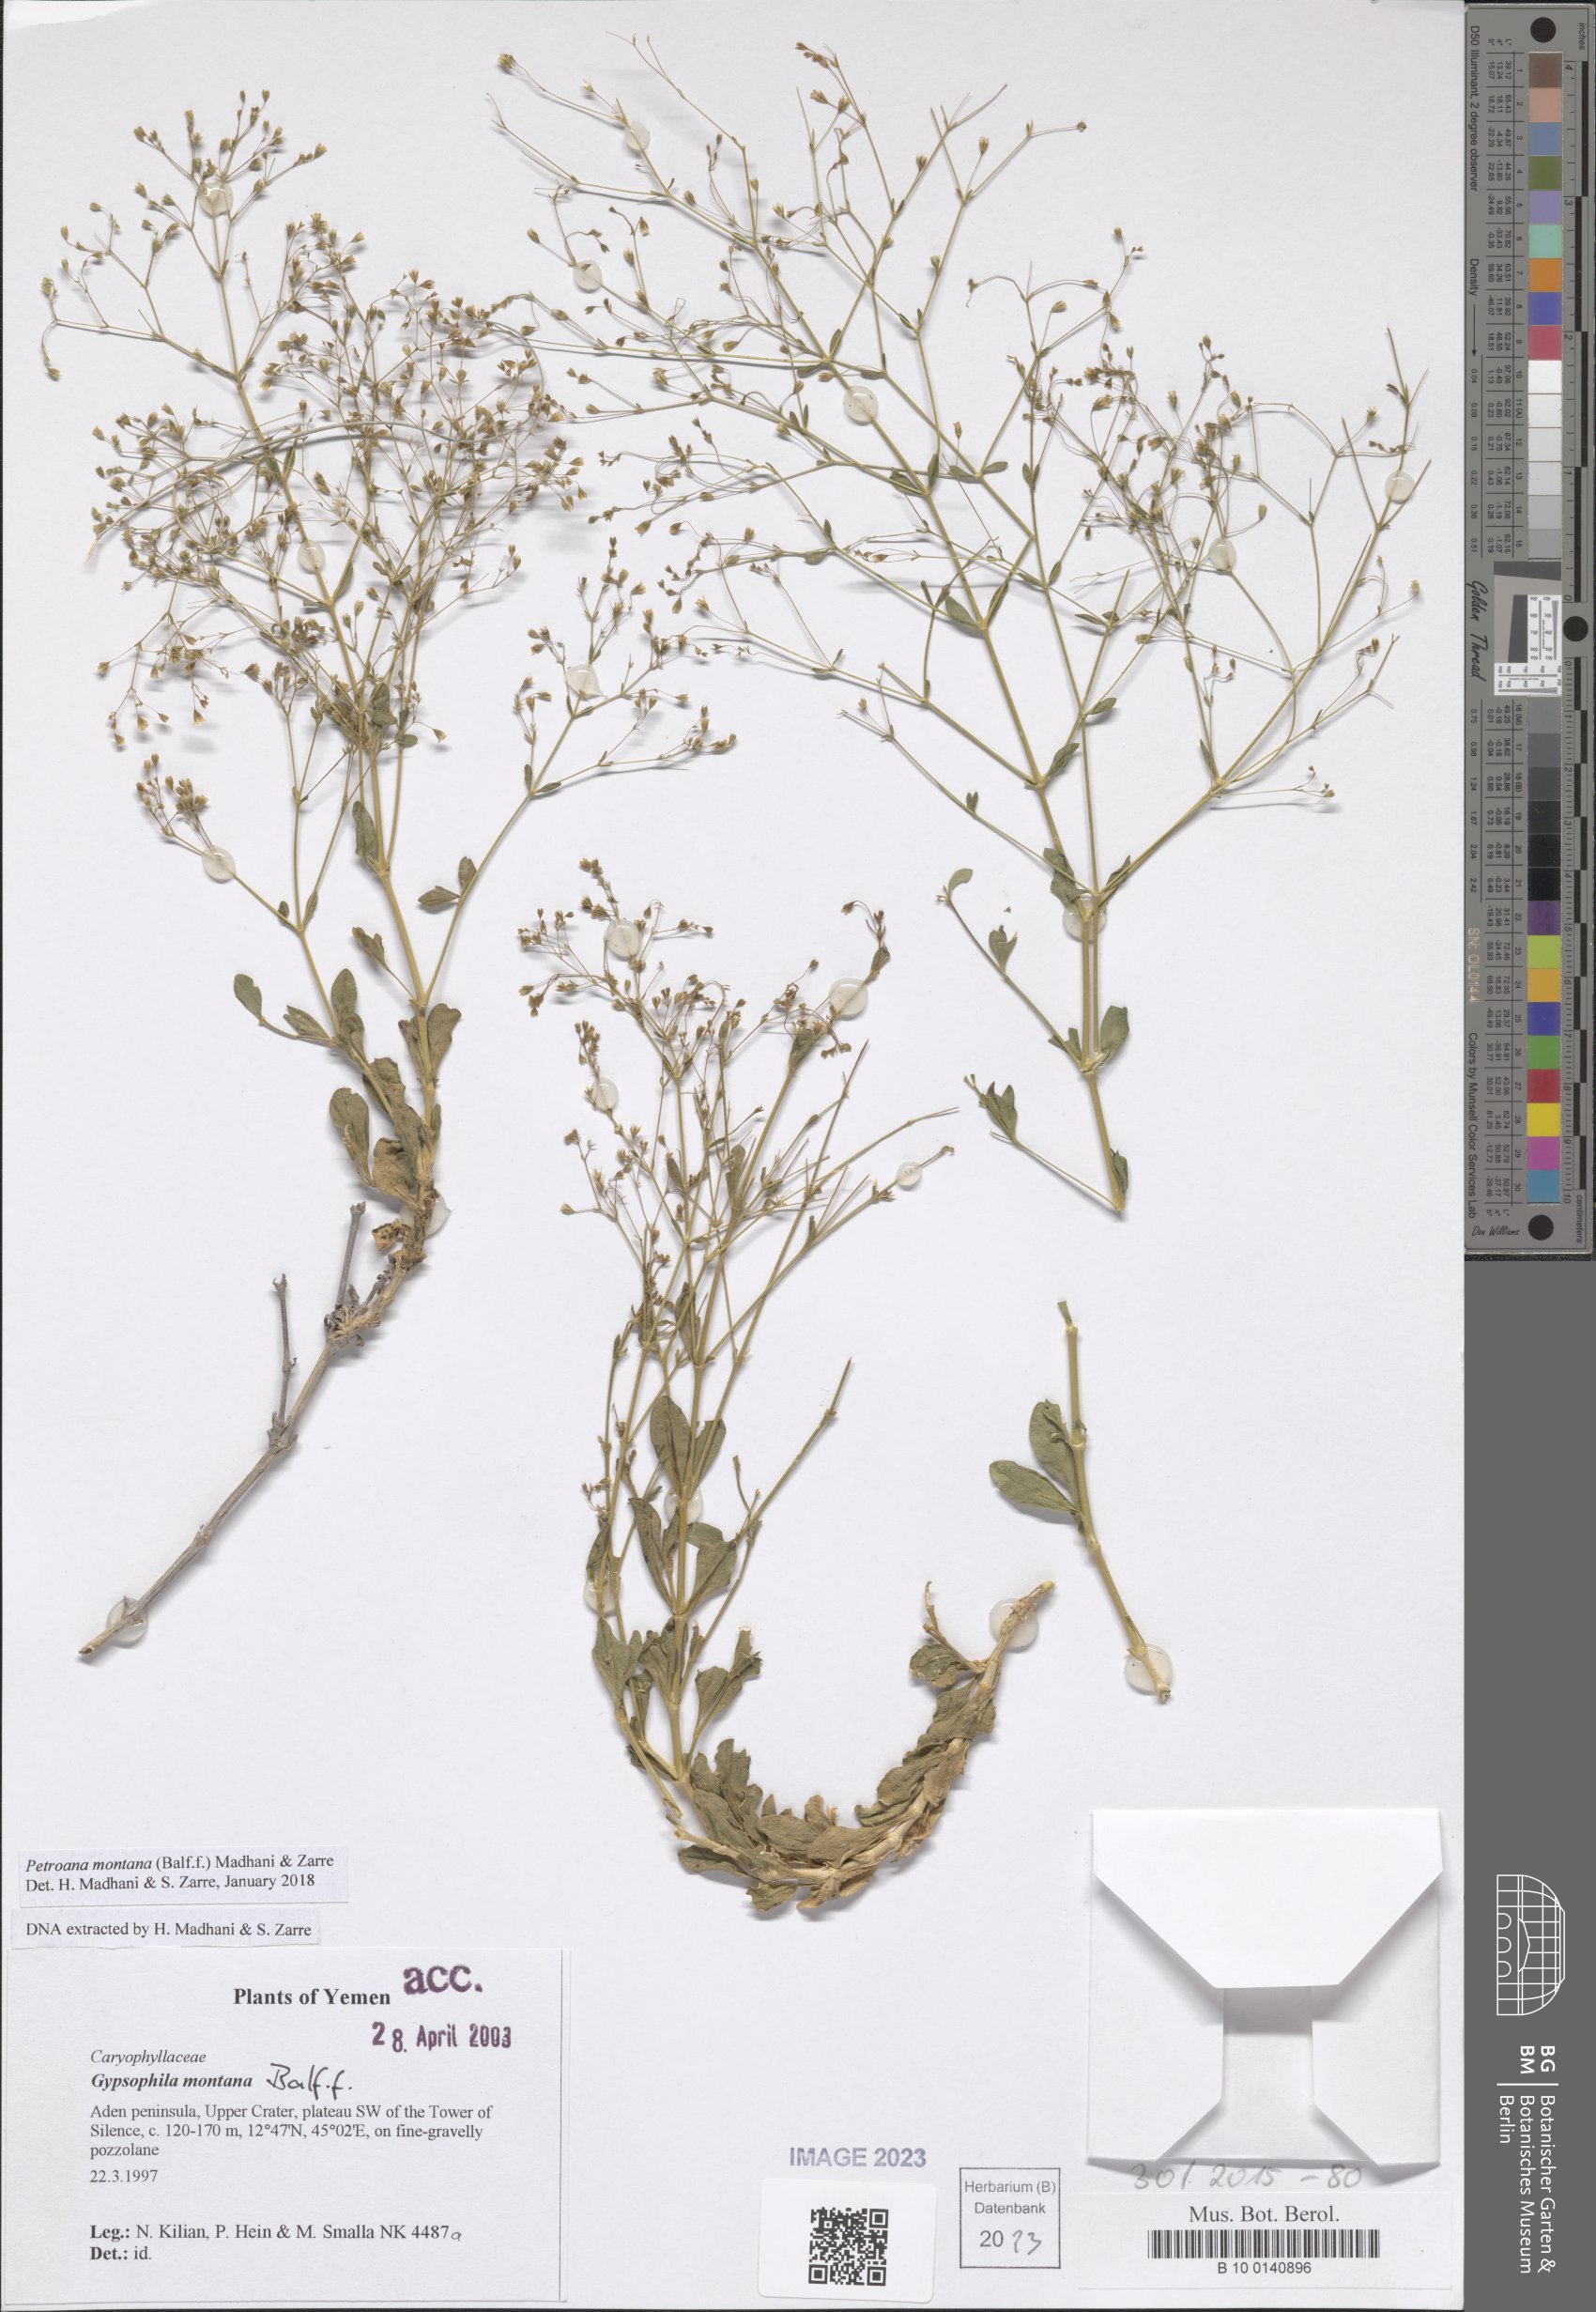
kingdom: Plantae
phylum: Tracheophyta
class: Magnoliopsida
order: Caryophyllales
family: Caryophyllaceae
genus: Petroana
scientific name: Petroana montana
